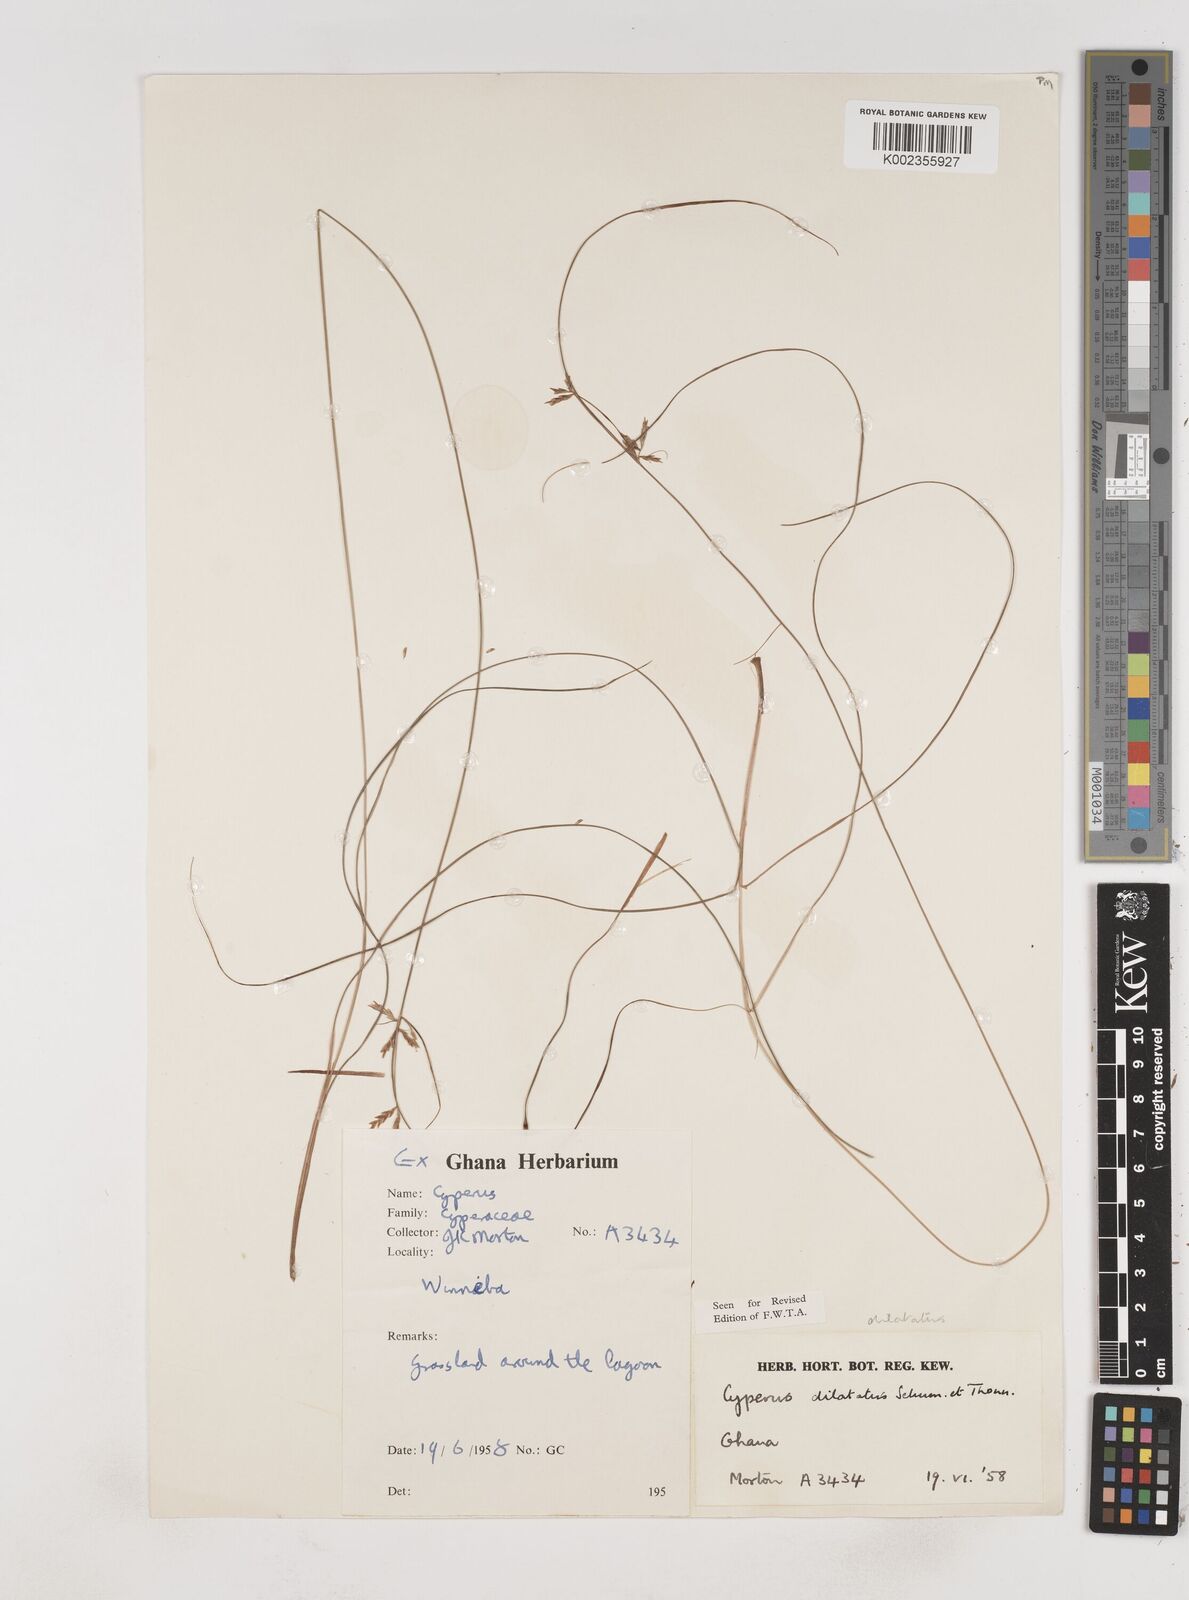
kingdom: Plantae
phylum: Tracheophyta
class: Liliopsida
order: Poales
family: Cyperaceae
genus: Cyperus
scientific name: Cyperus dilatatus
